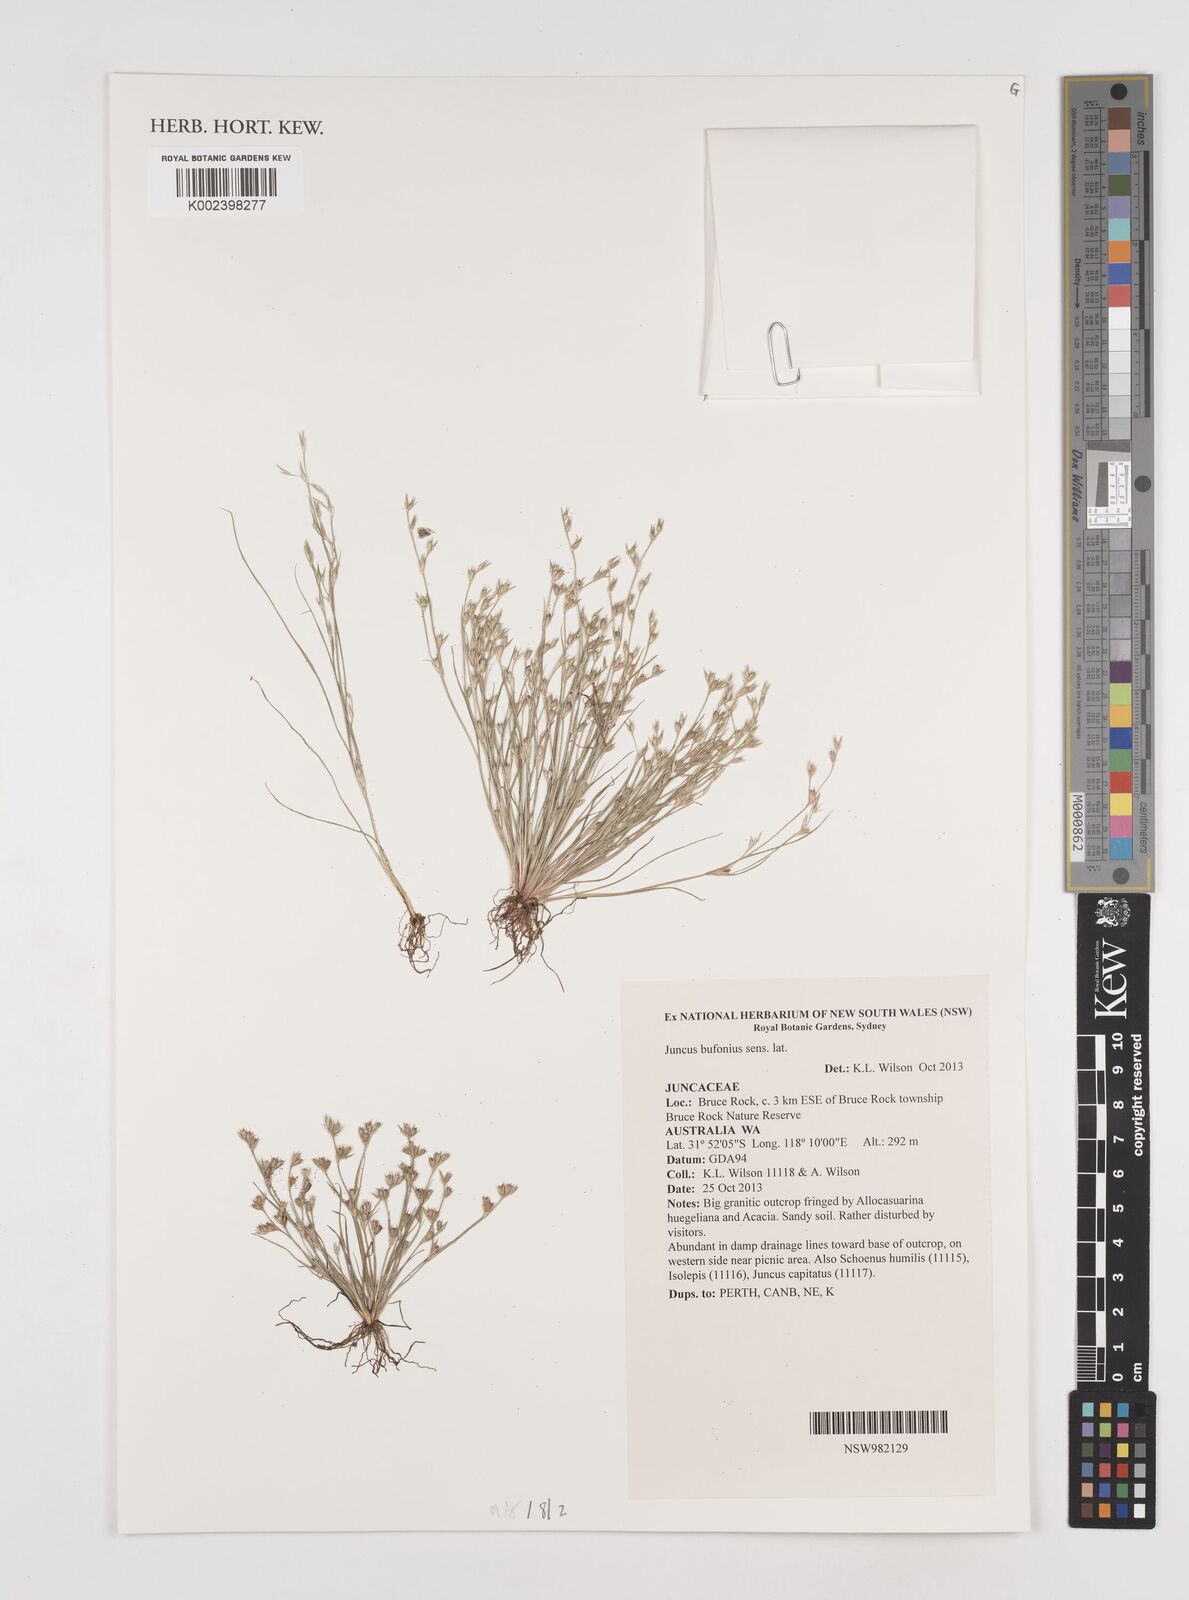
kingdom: Plantae
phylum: Tracheophyta
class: Liliopsida
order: Poales
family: Juncaceae
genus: Juncus
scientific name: Juncus ranarius
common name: Frog rush
